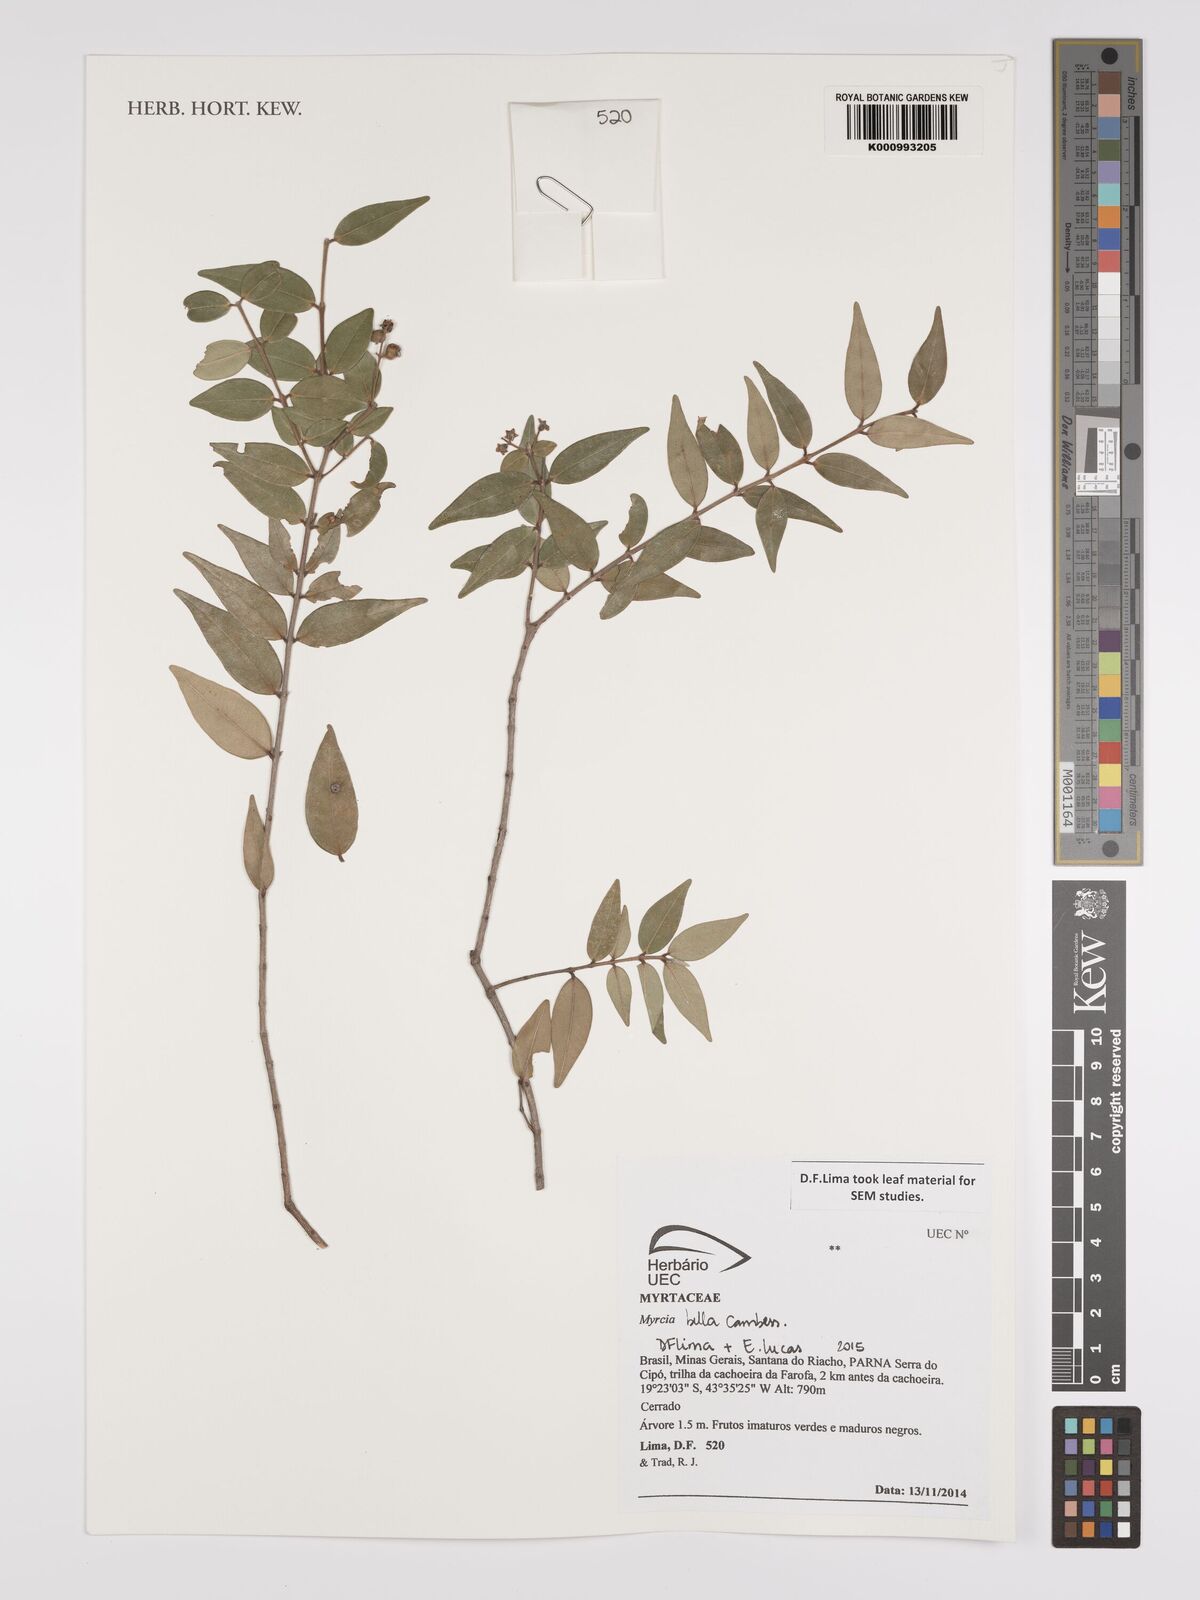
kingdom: Plantae
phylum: Tracheophyta
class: Magnoliopsida
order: Myrtales
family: Myrtaceae
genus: Myrcia
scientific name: Myrcia bella
